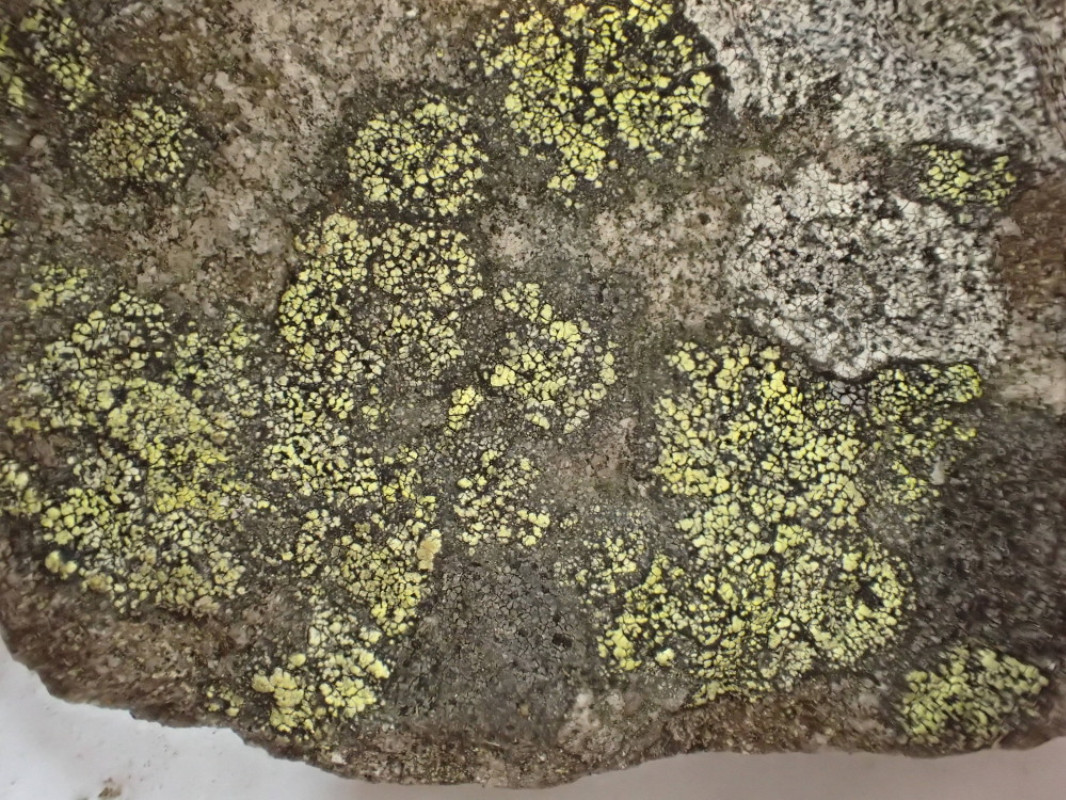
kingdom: Fungi
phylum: Ascomycota
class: Lecanoromycetes
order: Rhizocarpales
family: Rhizocarpaceae
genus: Rhizocarpon
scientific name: Rhizocarpon geographicum
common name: gulgrøn landkortlav
